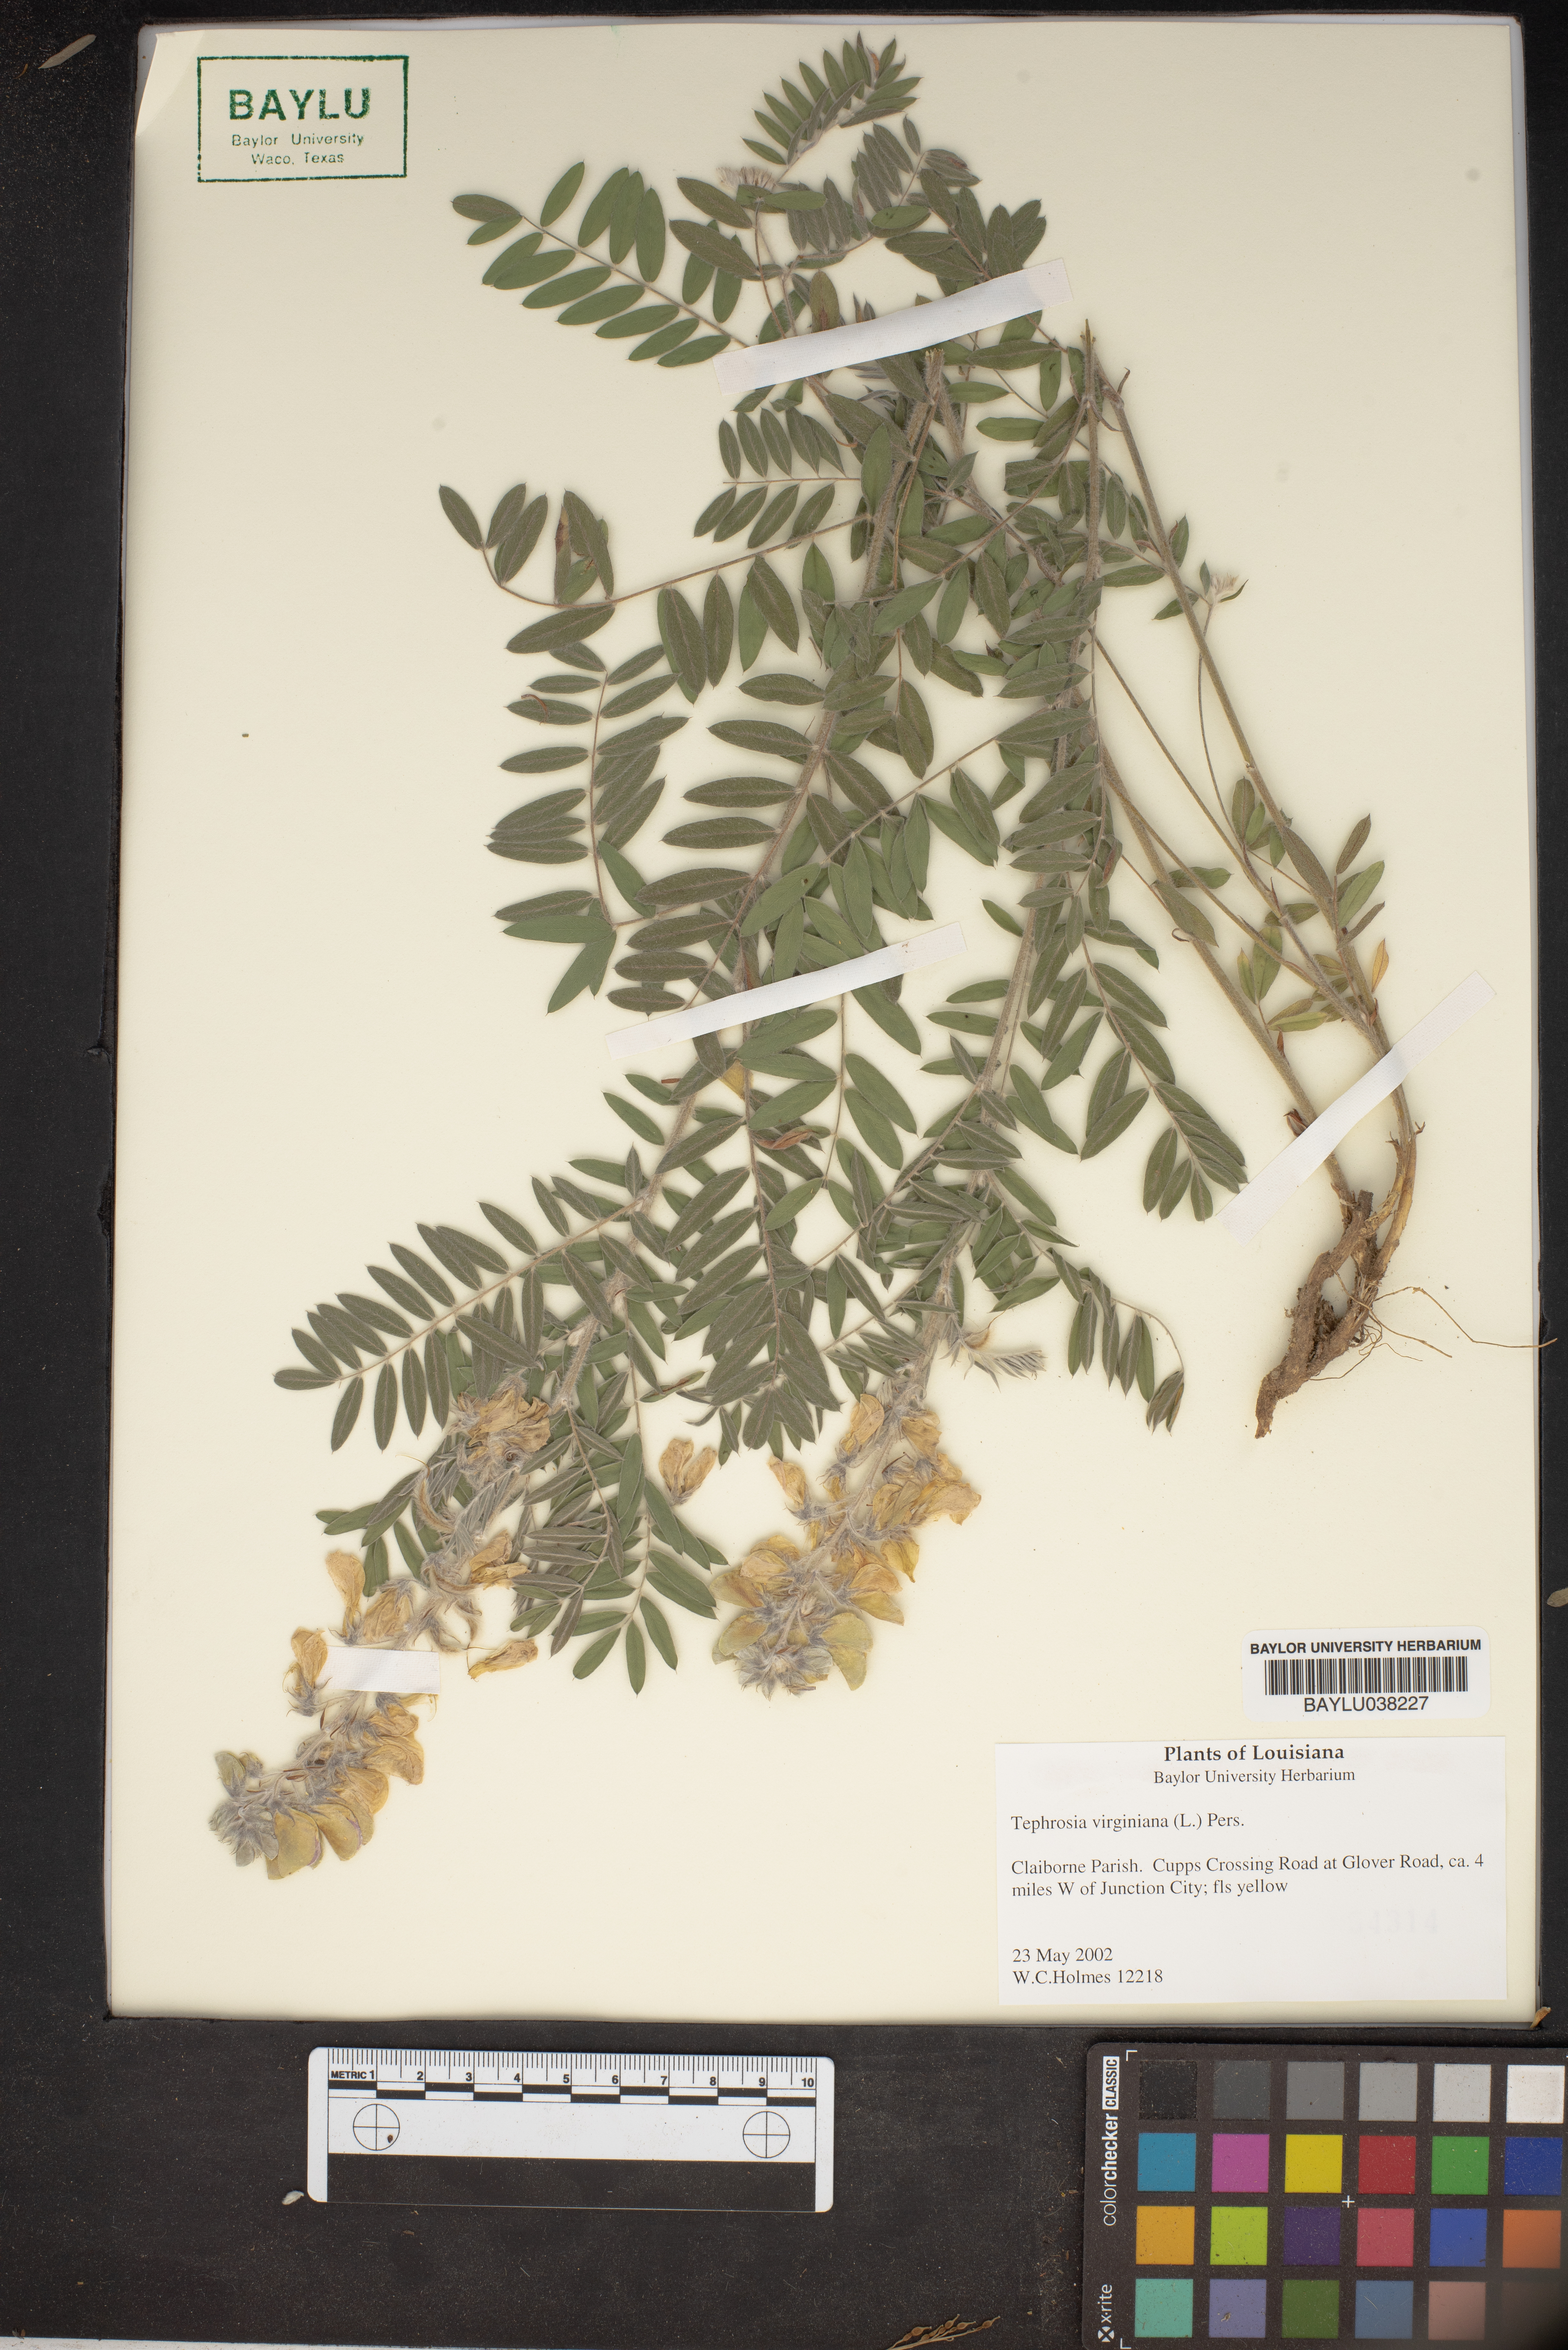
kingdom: Plantae
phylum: Tracheophyta
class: Magnoliopsida
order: Fabales
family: Fabaceae
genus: Tephrosia
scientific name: Tephrosia virginiana
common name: Rabbit-pea
